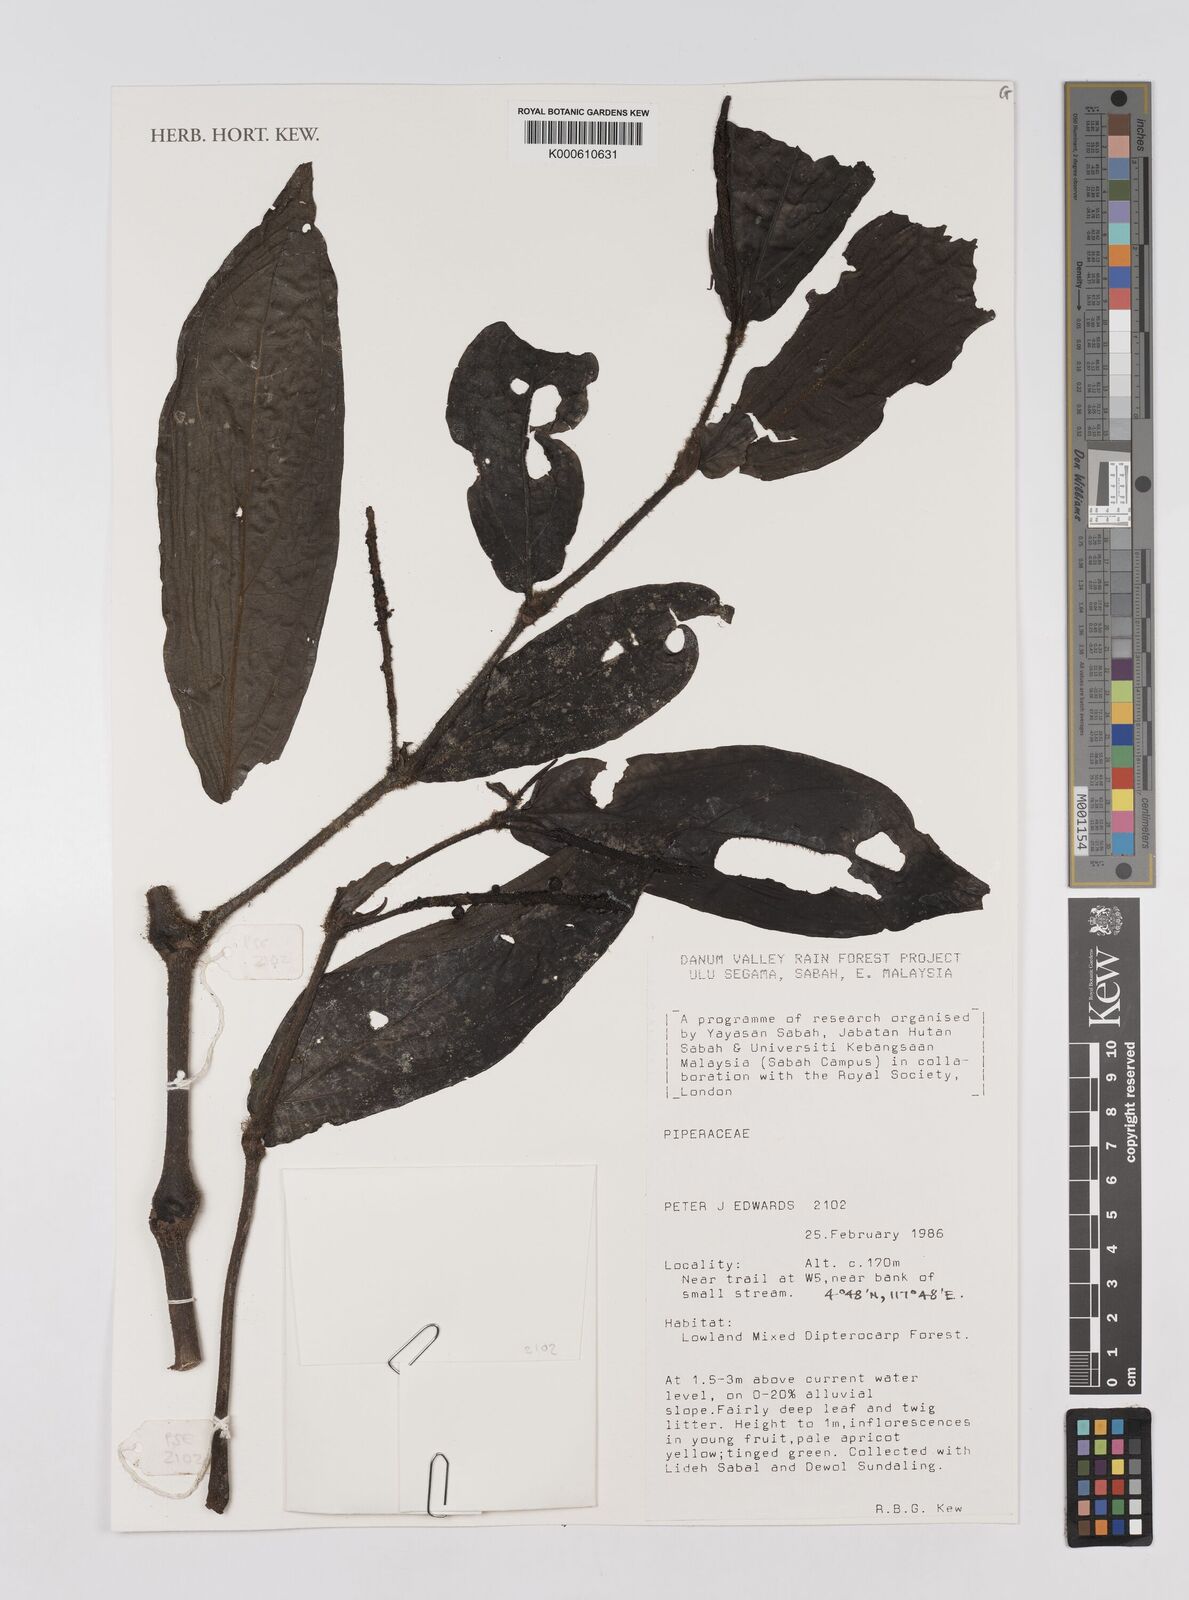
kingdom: Plantae
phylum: Tracheophyta
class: Magnoliopsida
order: Piperales
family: Piperaceae
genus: Piper
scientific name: Piper
